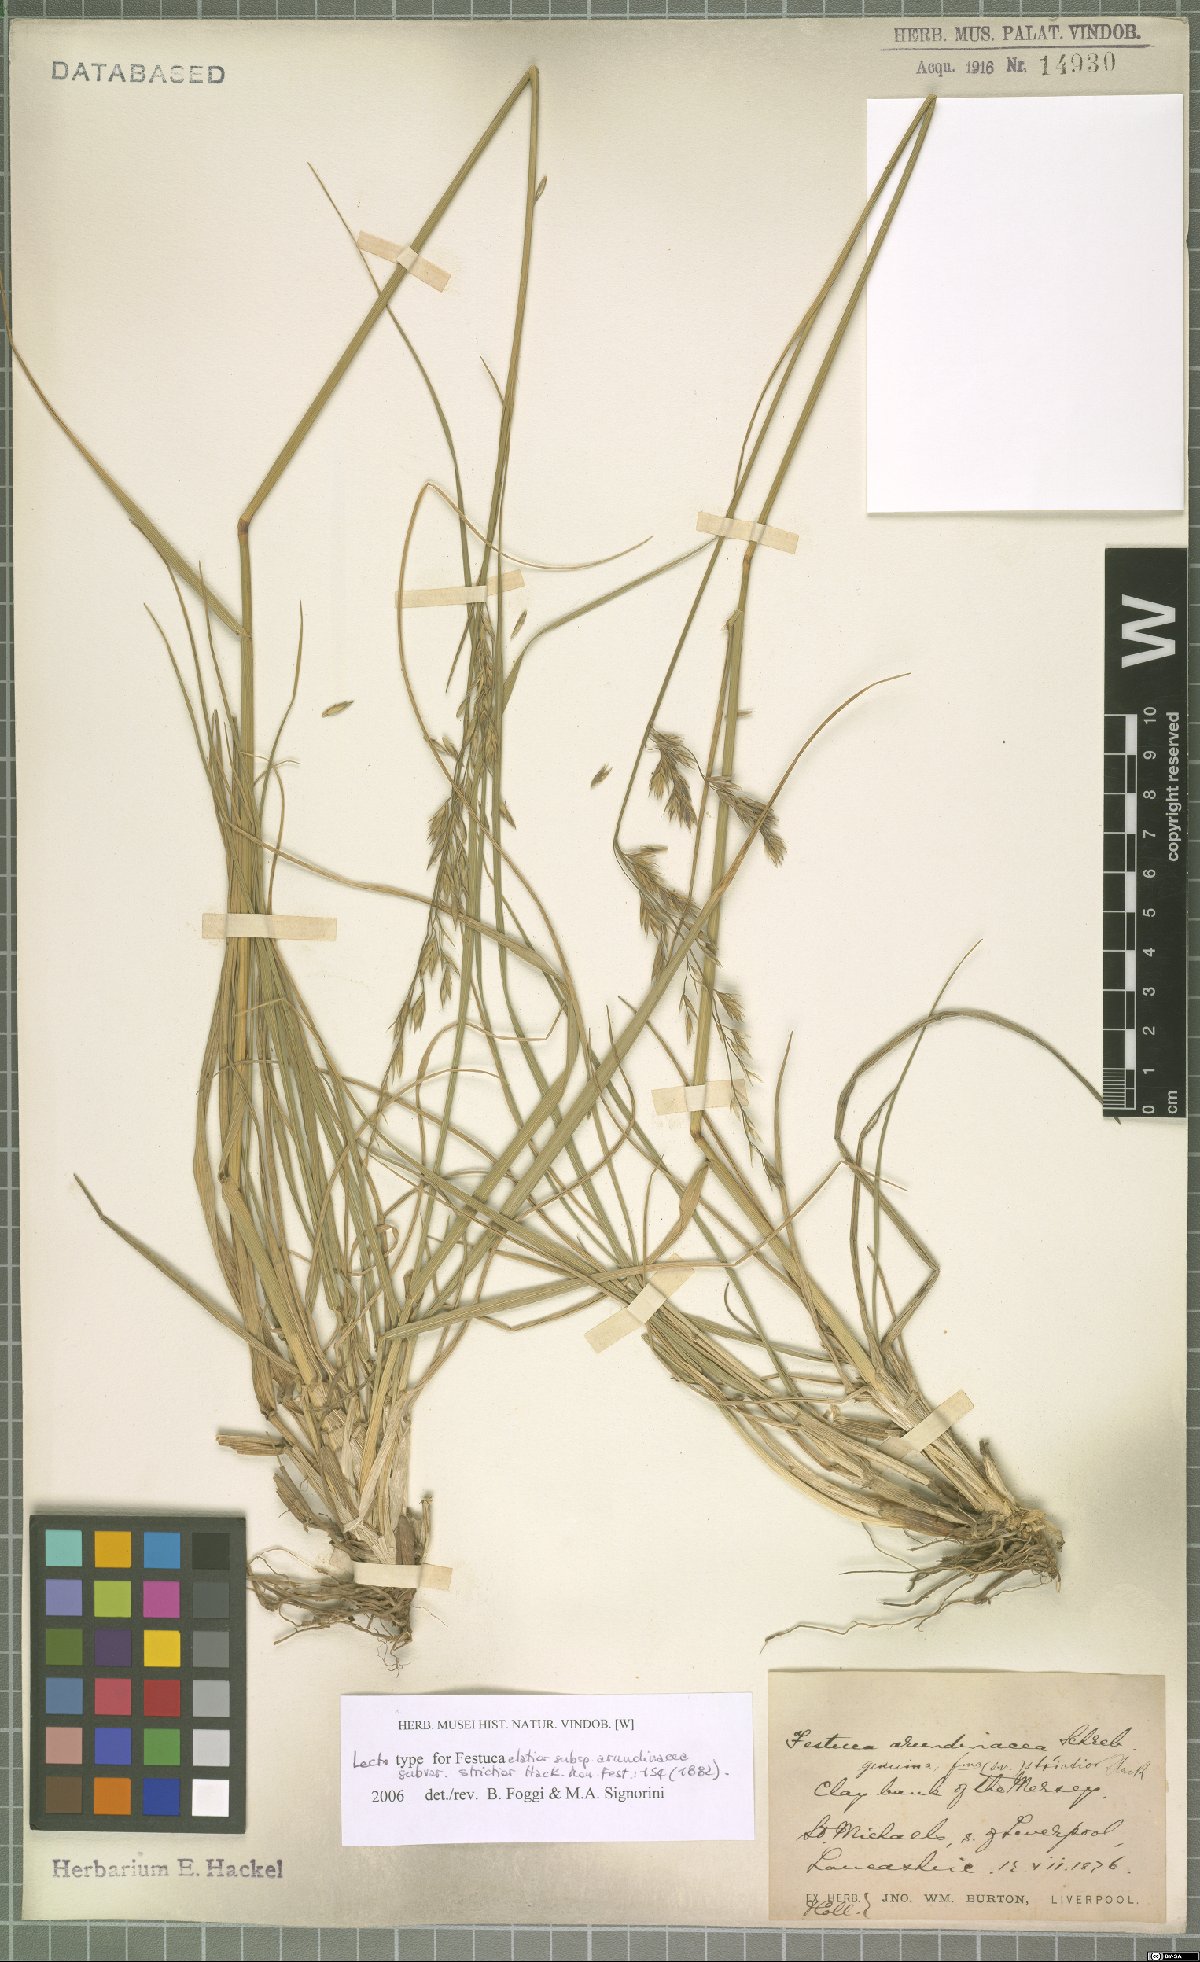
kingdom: Plantae
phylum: Tracheophyta
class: Liliopsida
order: Poales
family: Poaceae
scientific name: Poaceae
